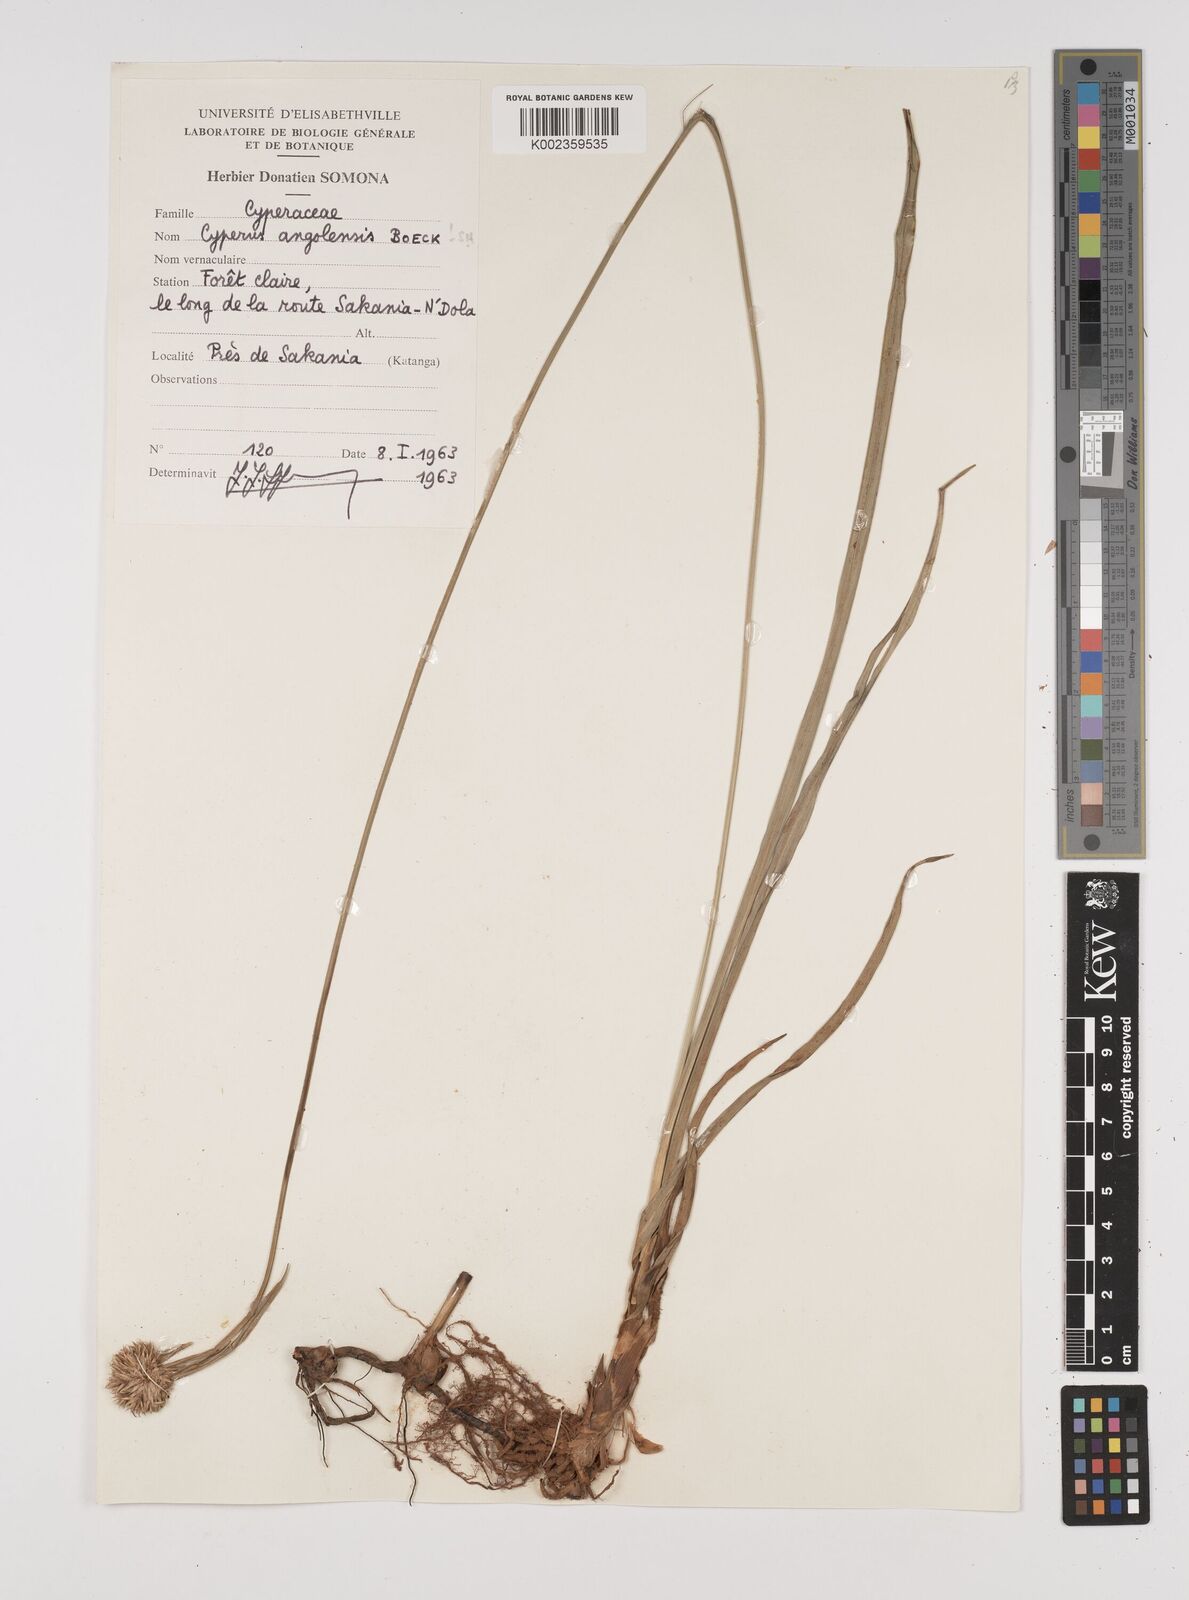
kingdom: Plantae
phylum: Tracheophyta
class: Liliopsida
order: Poales
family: Cyperaceae
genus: Cyperus
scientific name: Cyperus angolensis
